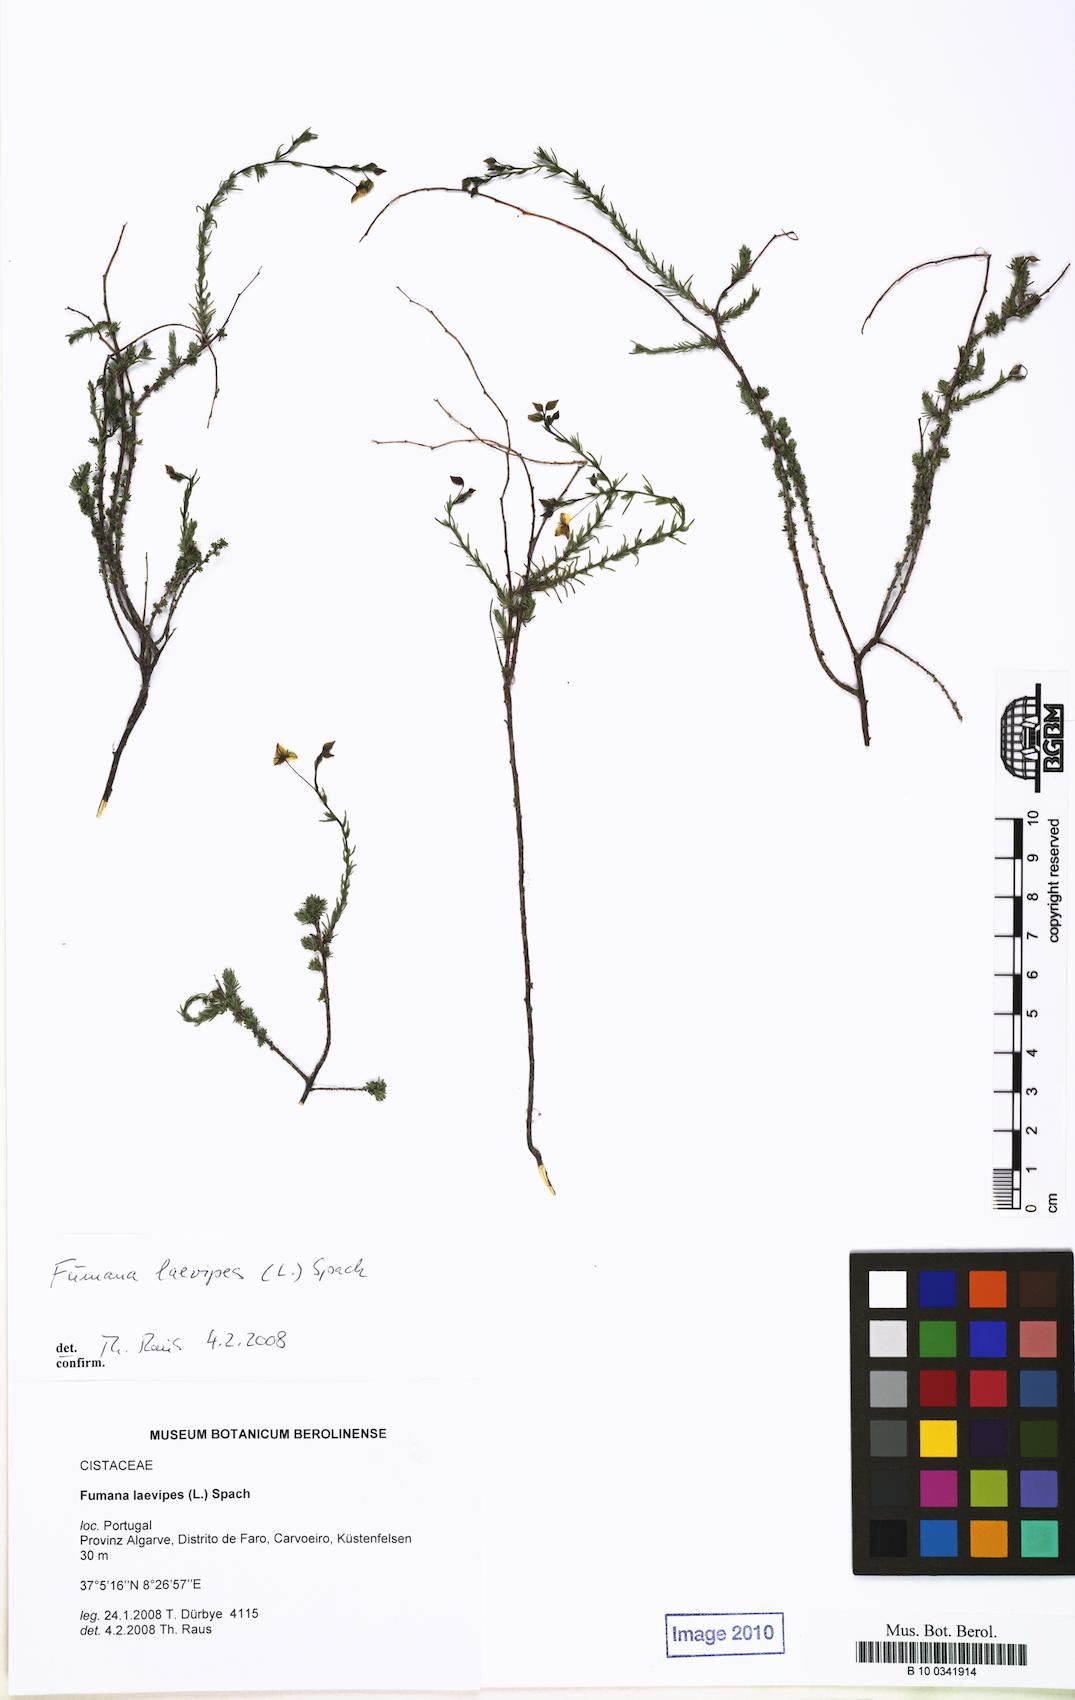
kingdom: Plantae
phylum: Tracheophyta
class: Magnoliopsida
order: Malvales
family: Cistaceae
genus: Fumana
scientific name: Fumana laevipes
